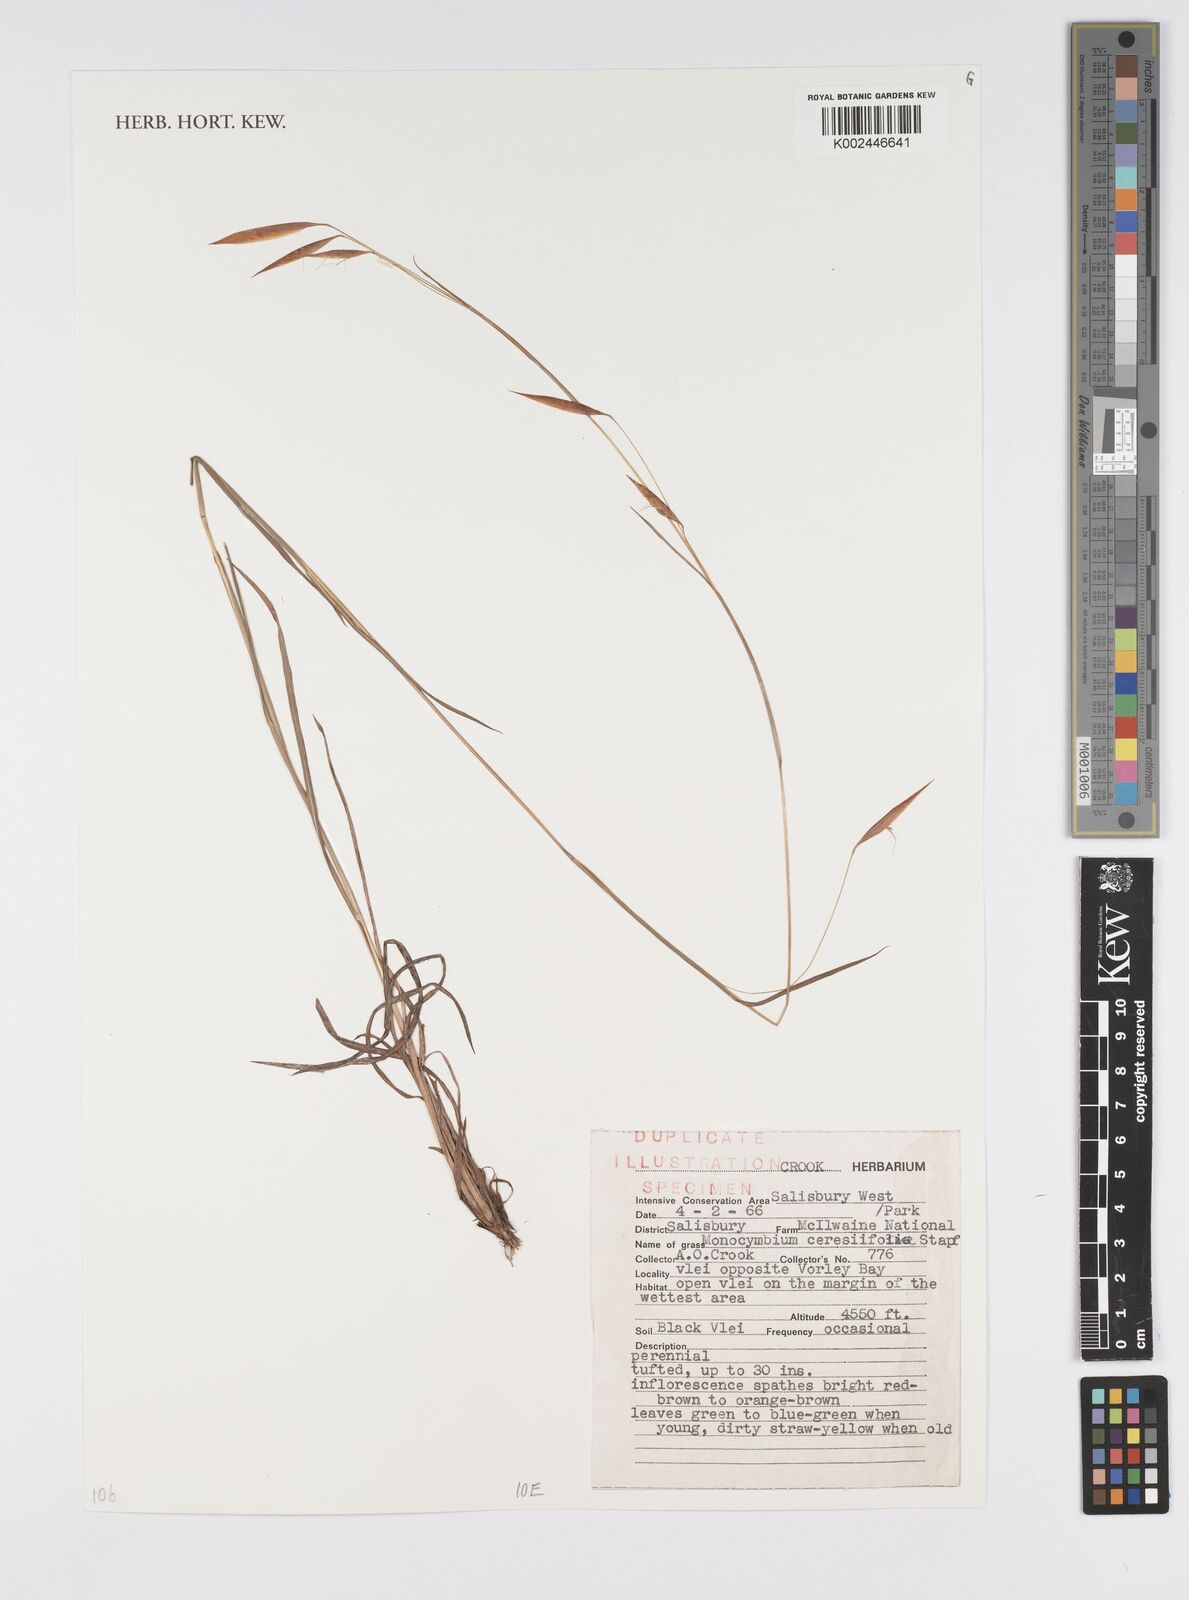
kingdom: Plantae
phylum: Tracheophyta
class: Liliopsida
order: Poales
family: Poaceae
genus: Monocymbium
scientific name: Monocymbium ceresiiforme
